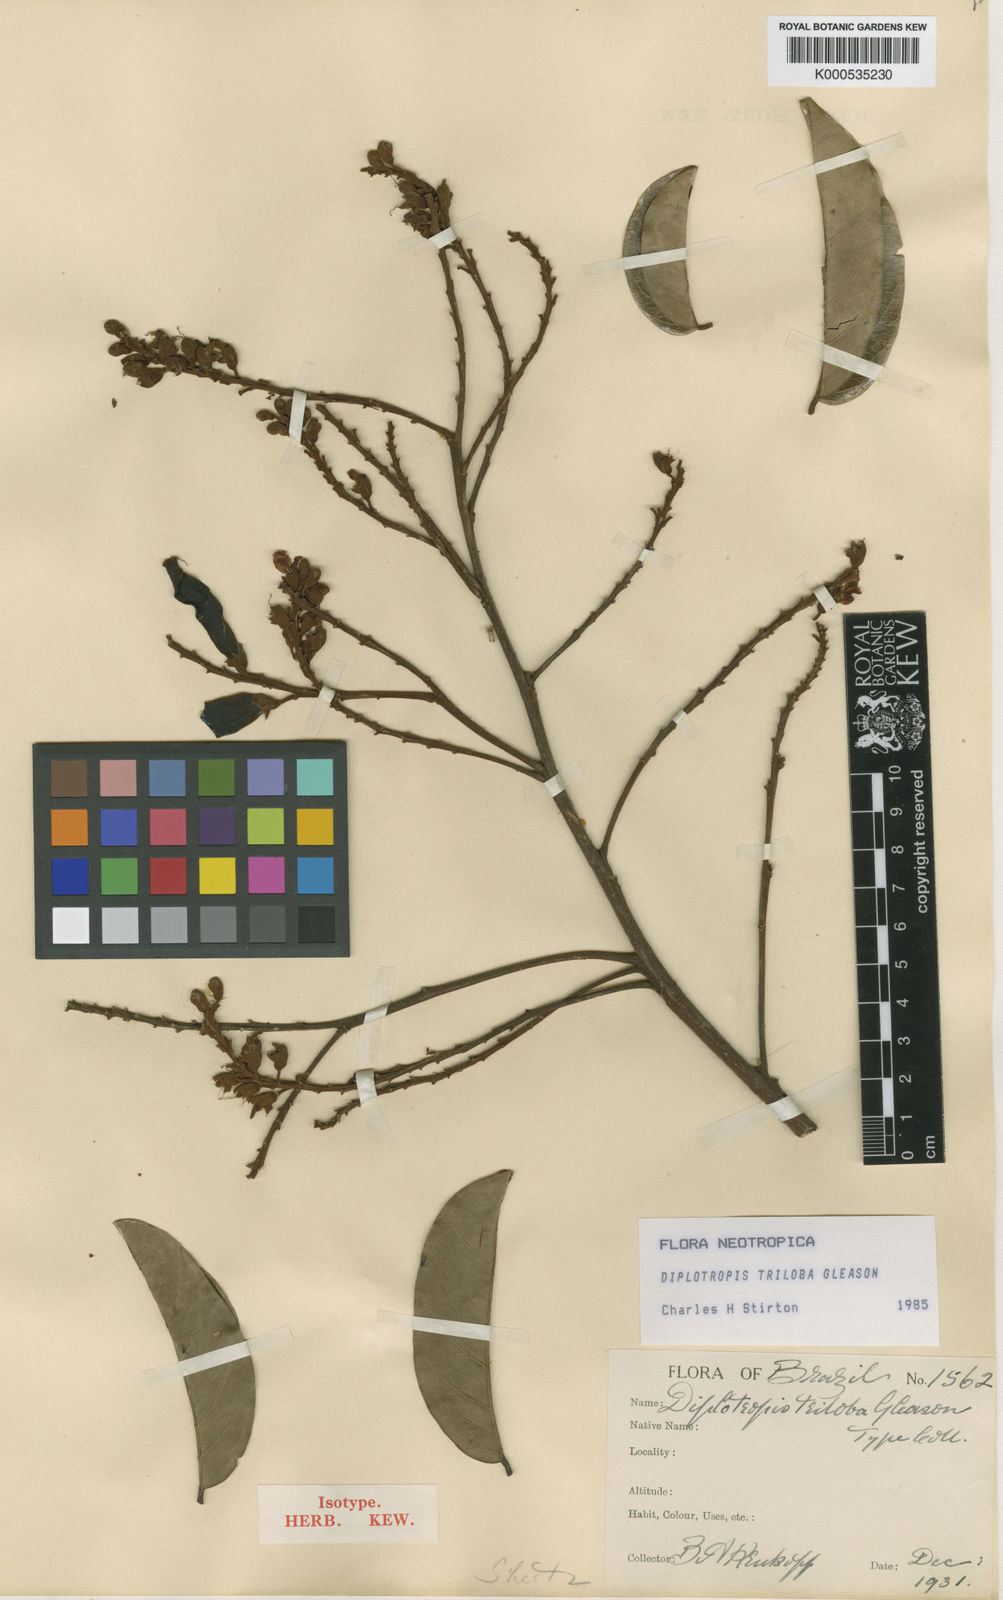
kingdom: Plantae
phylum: Tracheophyta
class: Magnoliopsida
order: Fabales
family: Fabaceae
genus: Diplotropis
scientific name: Diplotropis triloba
